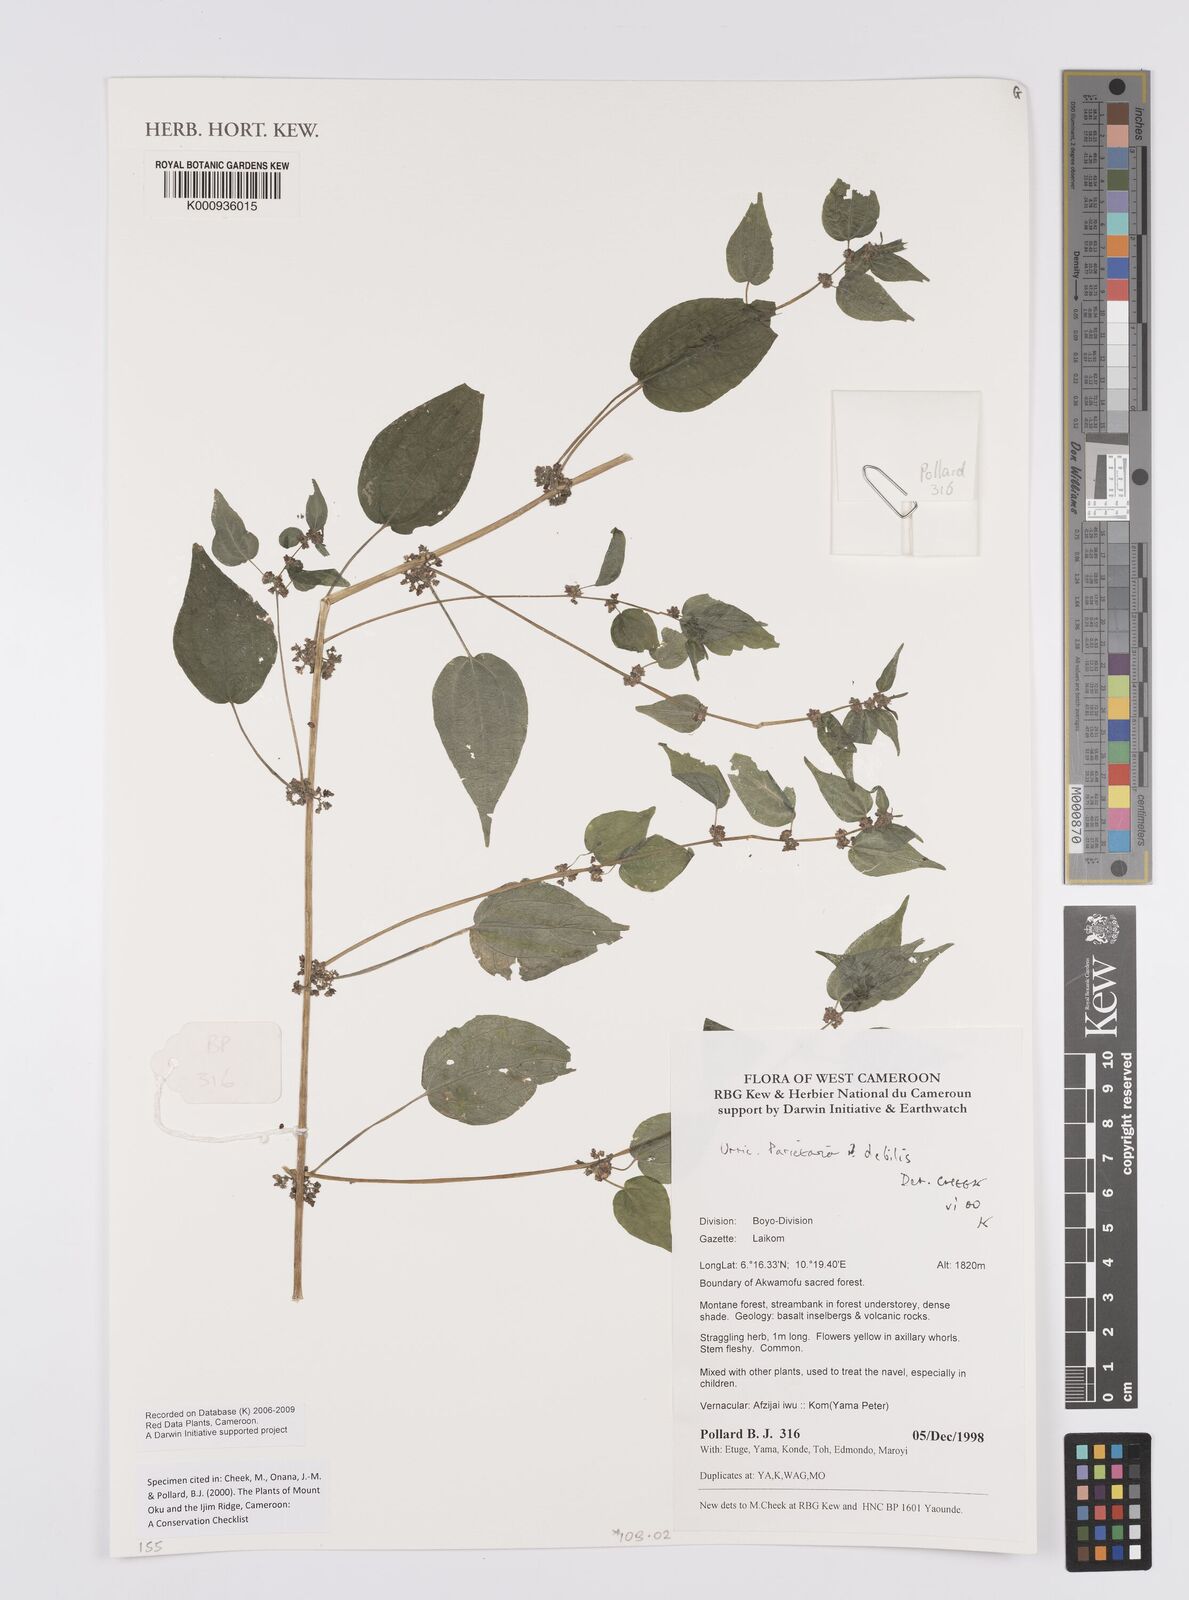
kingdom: Plantae
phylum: Tracheophyta
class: Magnoliopsida
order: Rosales
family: Urticaceae
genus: Parietaria
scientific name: Parietaria debilis
